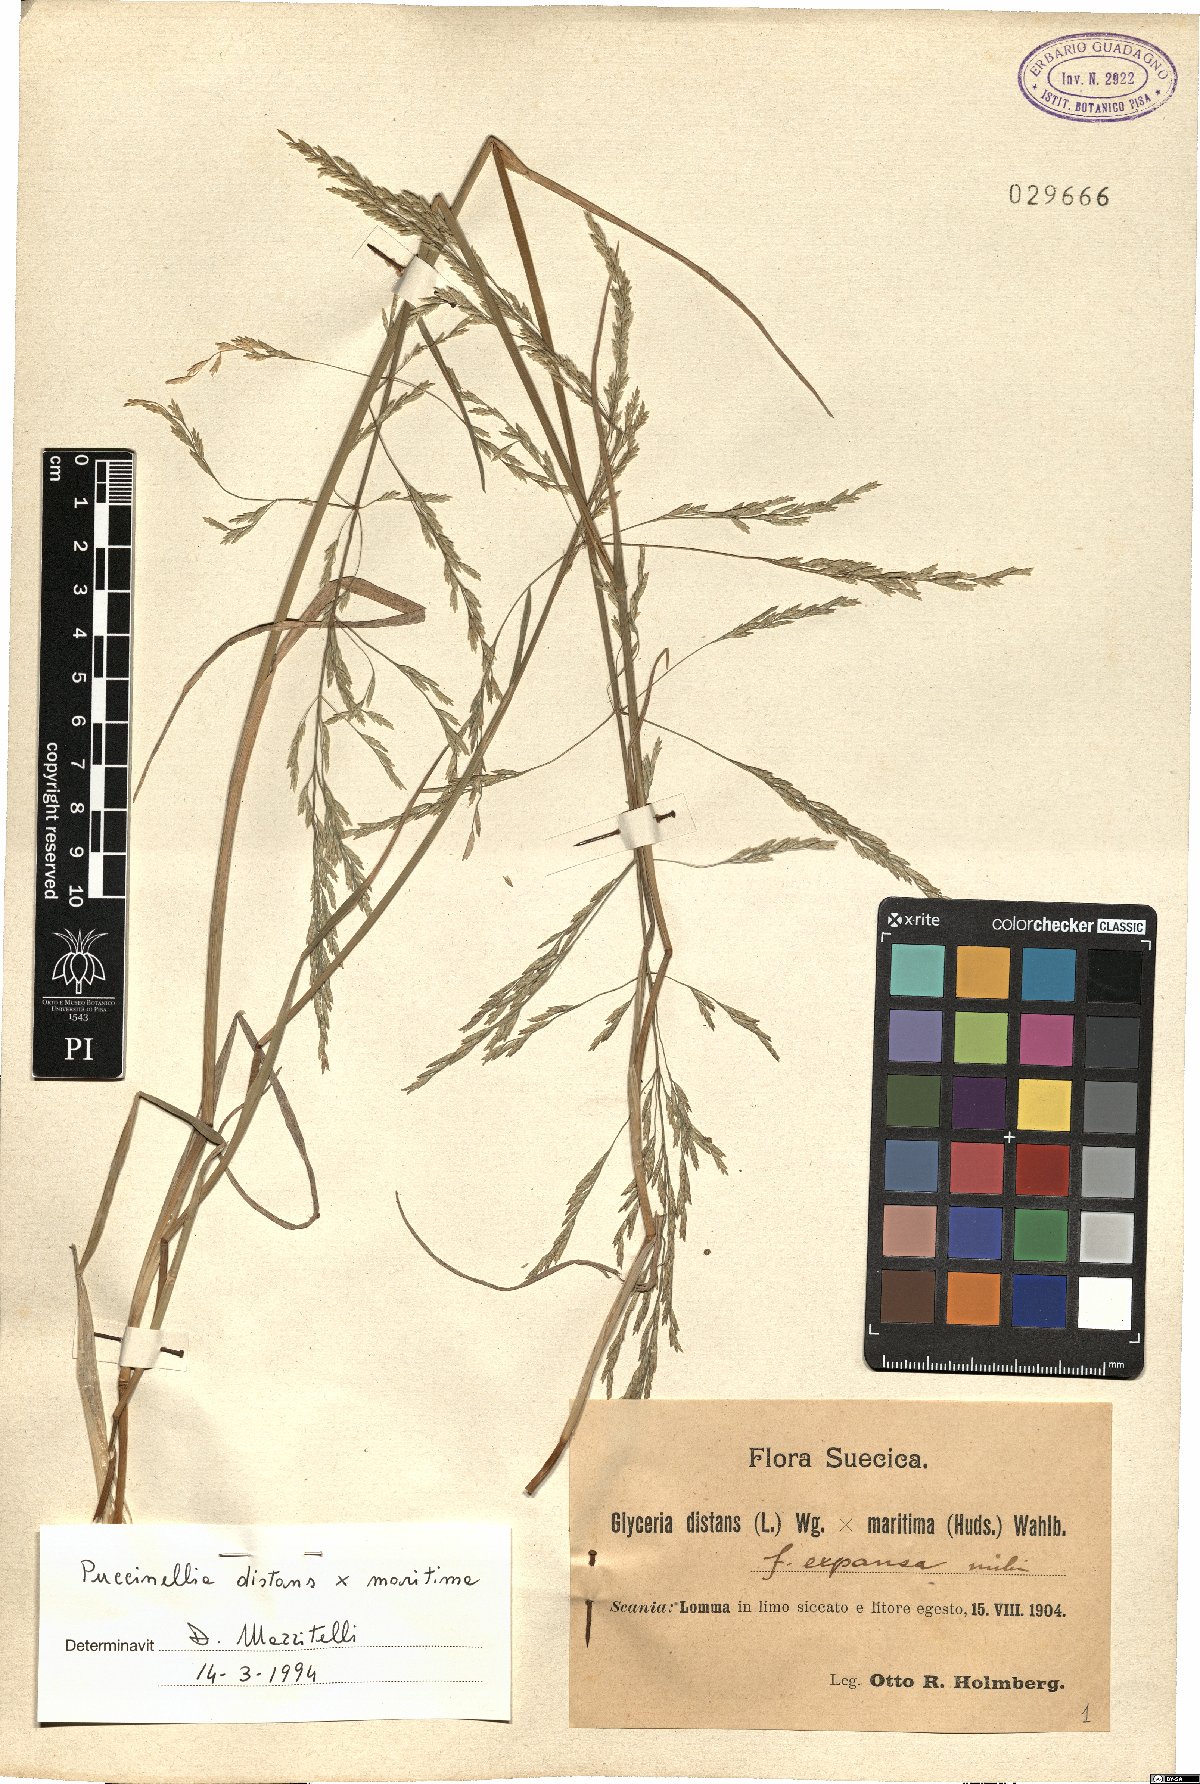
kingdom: Plantae
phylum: Tracheophyta
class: Liliopsida
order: Poales
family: Poaceae
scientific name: Poaceae
